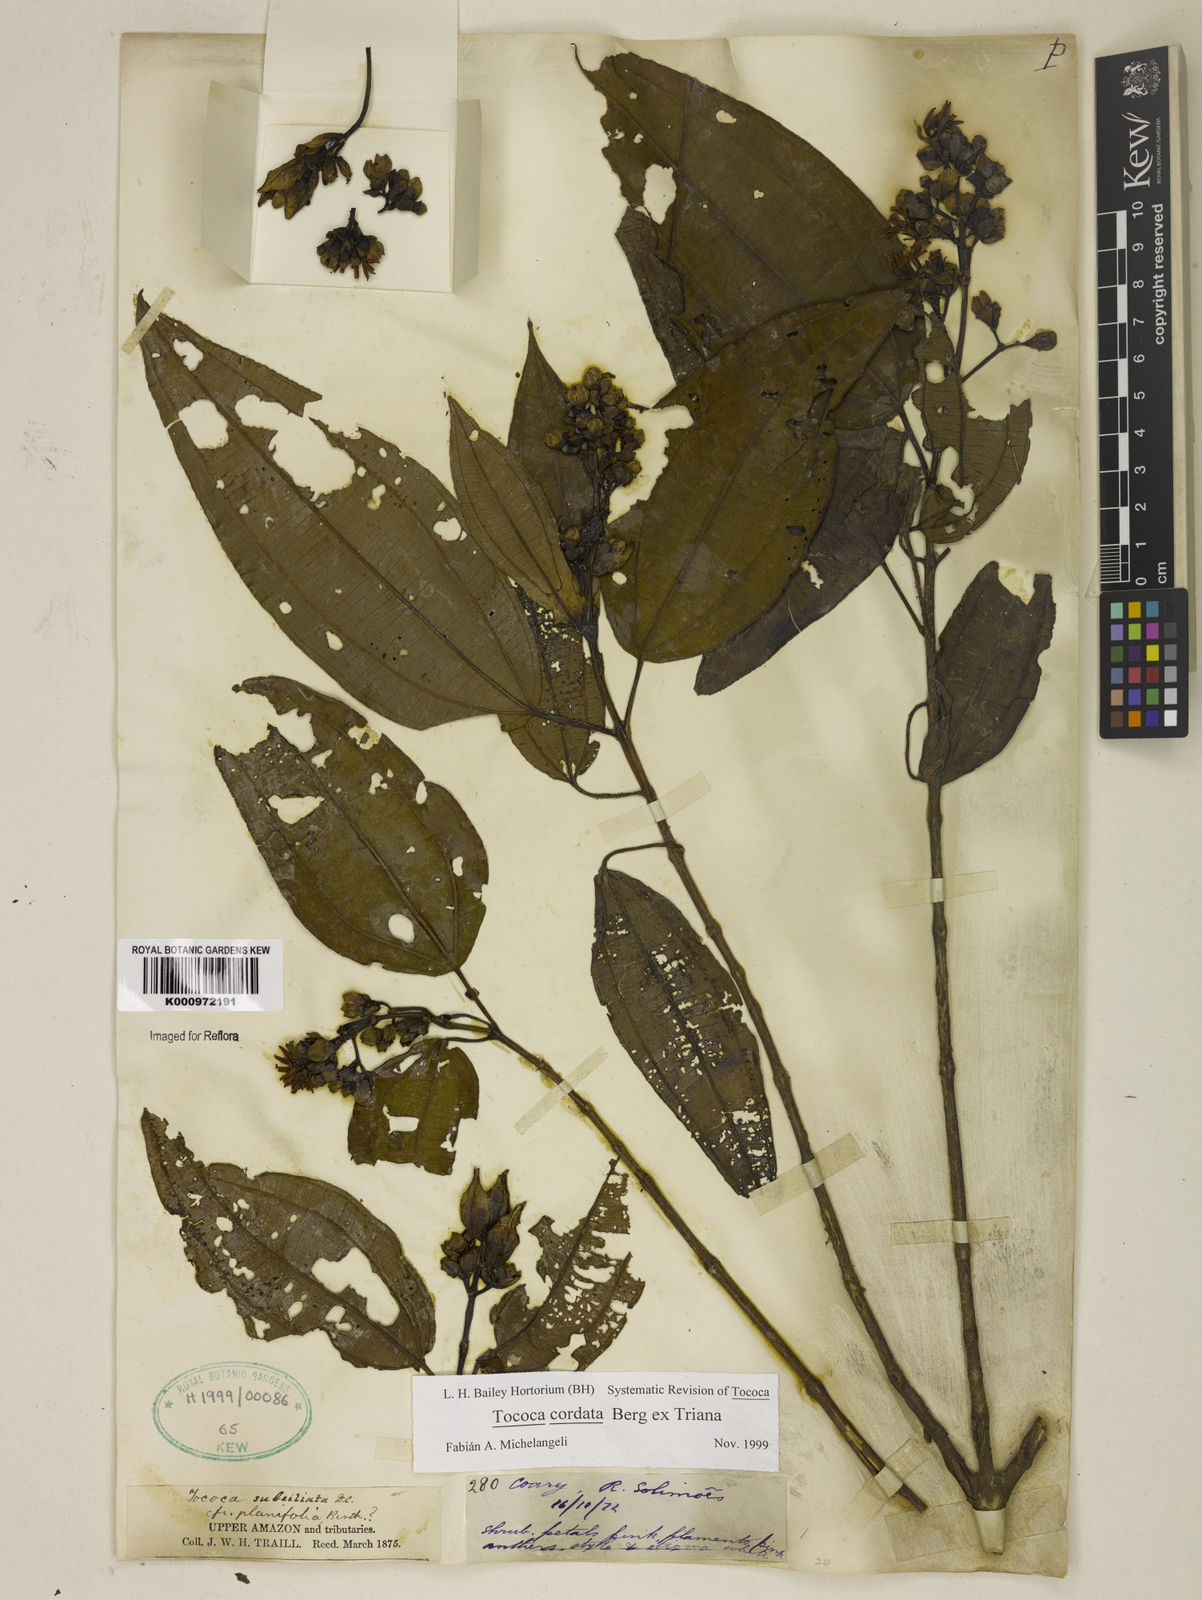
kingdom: Plantae
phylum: Tracheophyta
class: Magnoliopsida
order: Myrtales
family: Melastomataceae
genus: Miconia
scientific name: Miconia tococordata
